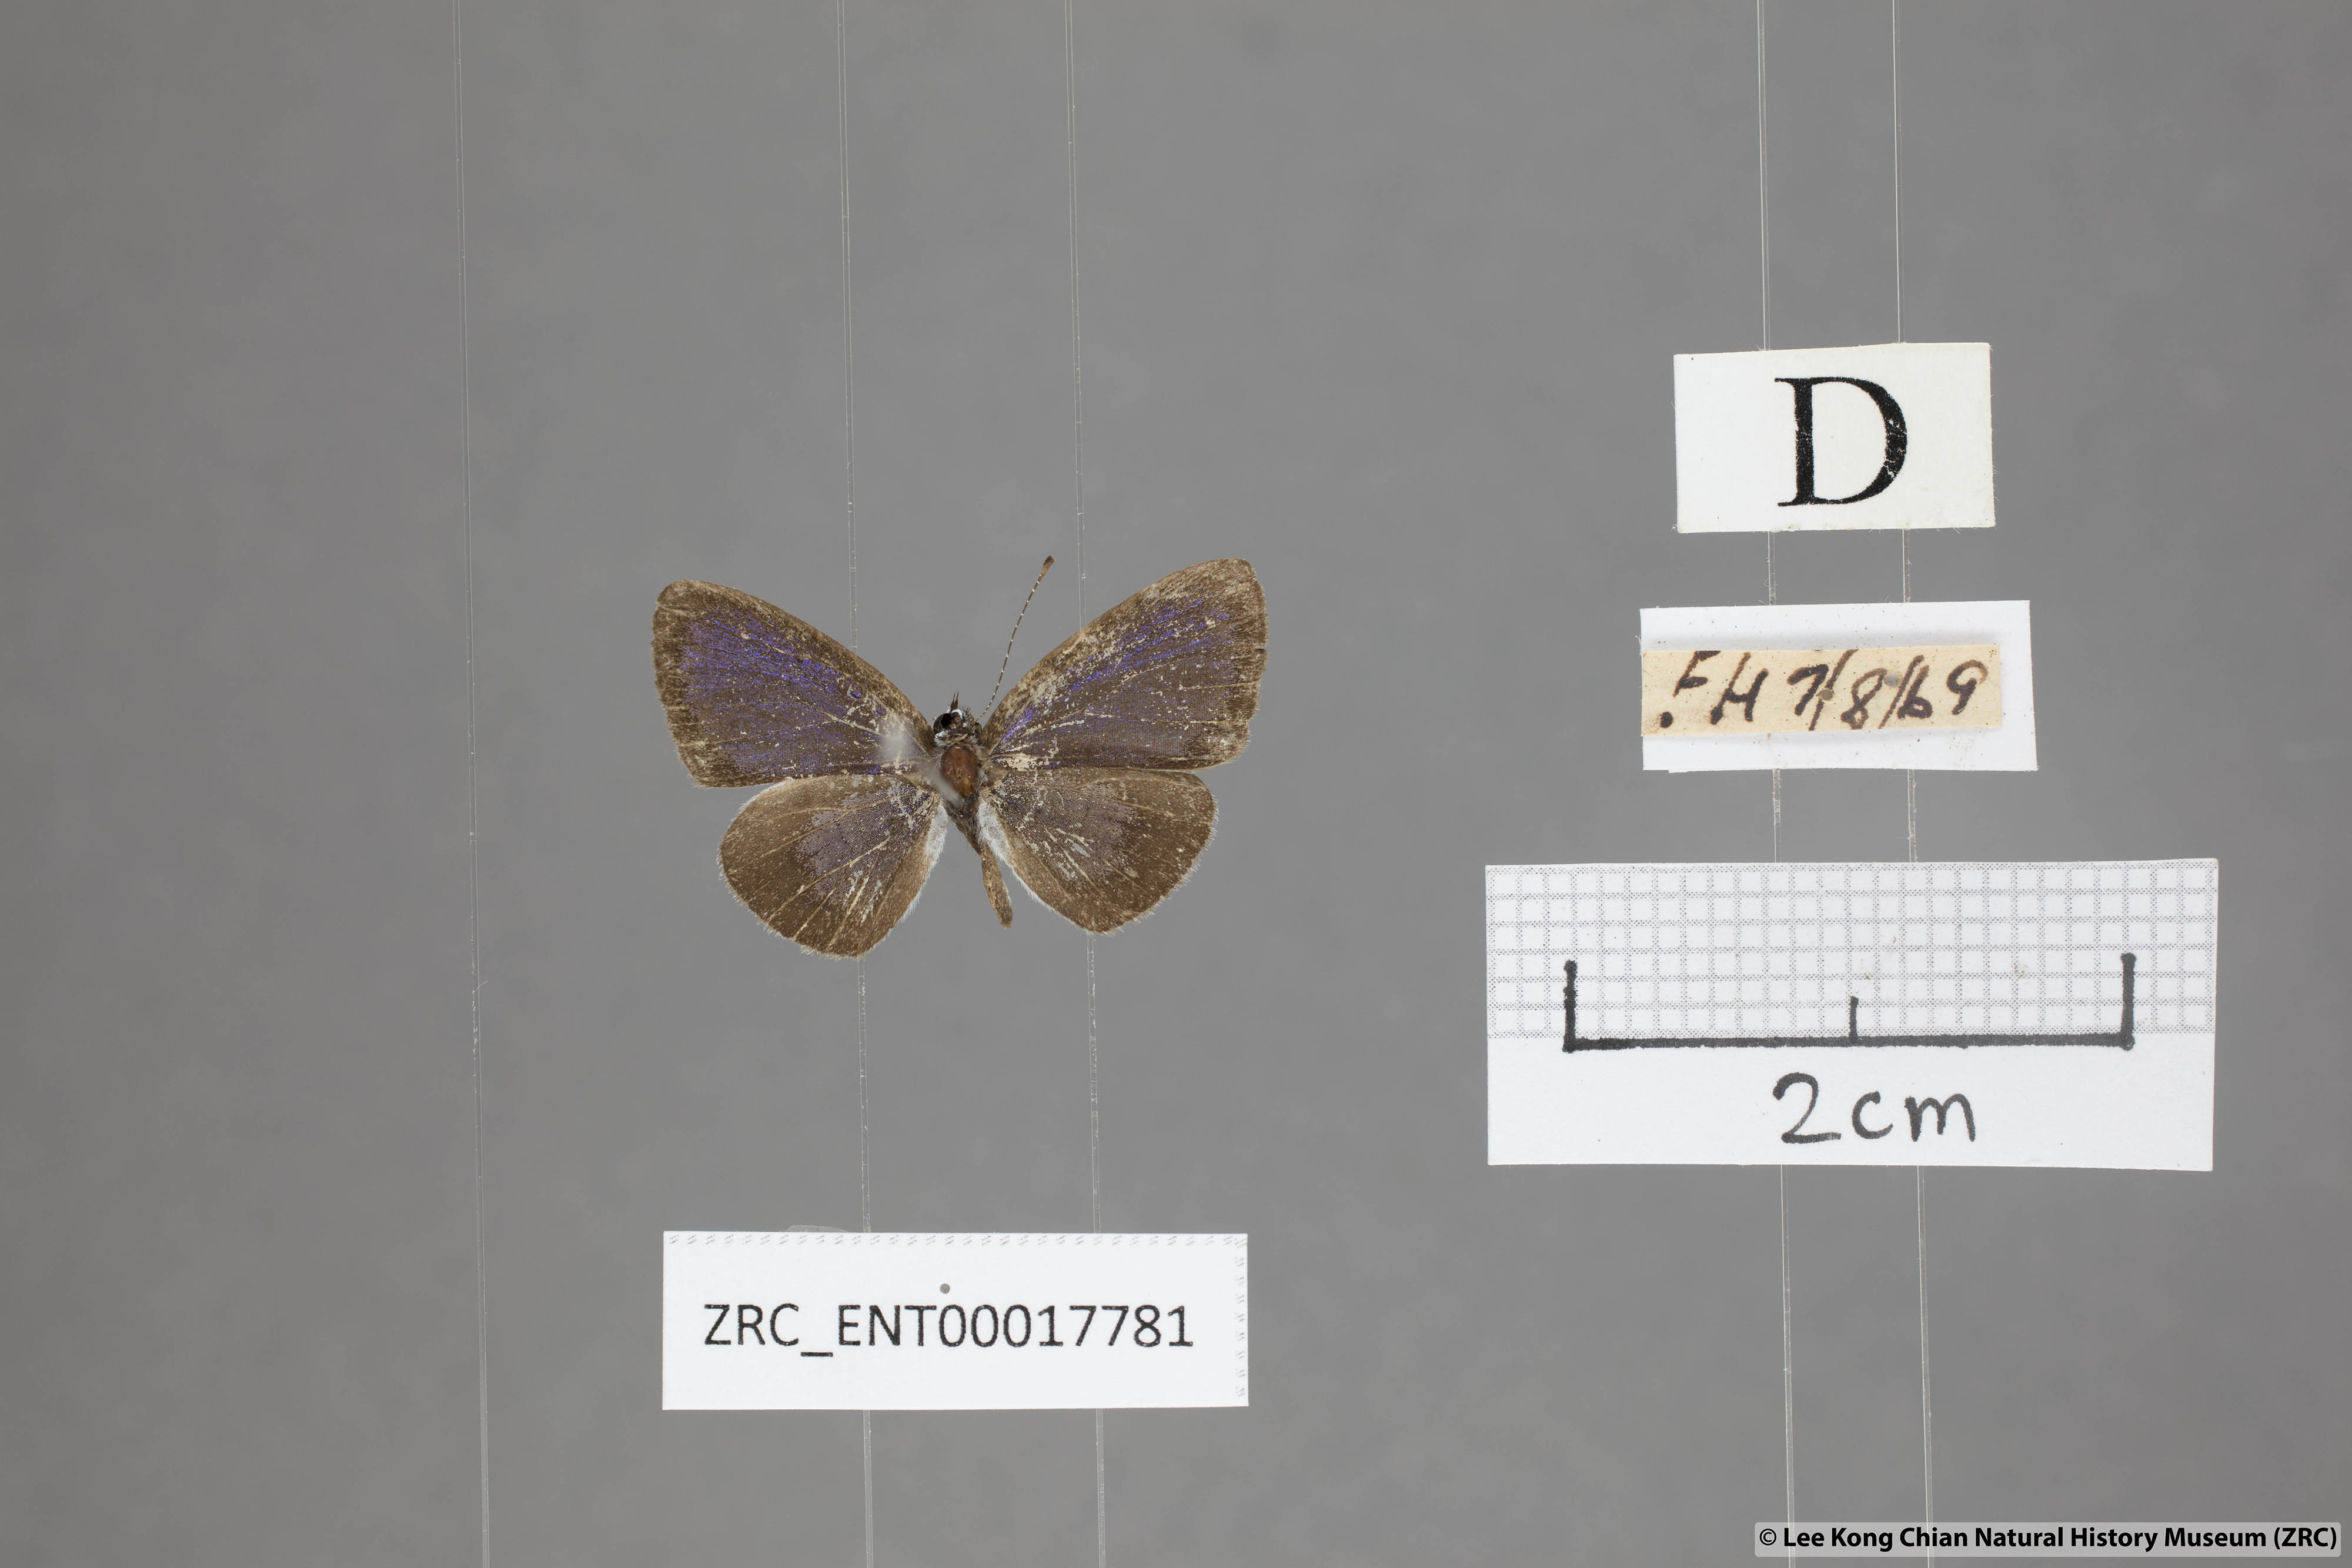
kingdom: Animalia
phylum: Arthropoda
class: Insecta
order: Lepidoptera
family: Lycaenidae
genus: Callenya
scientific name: Callenya lenya
